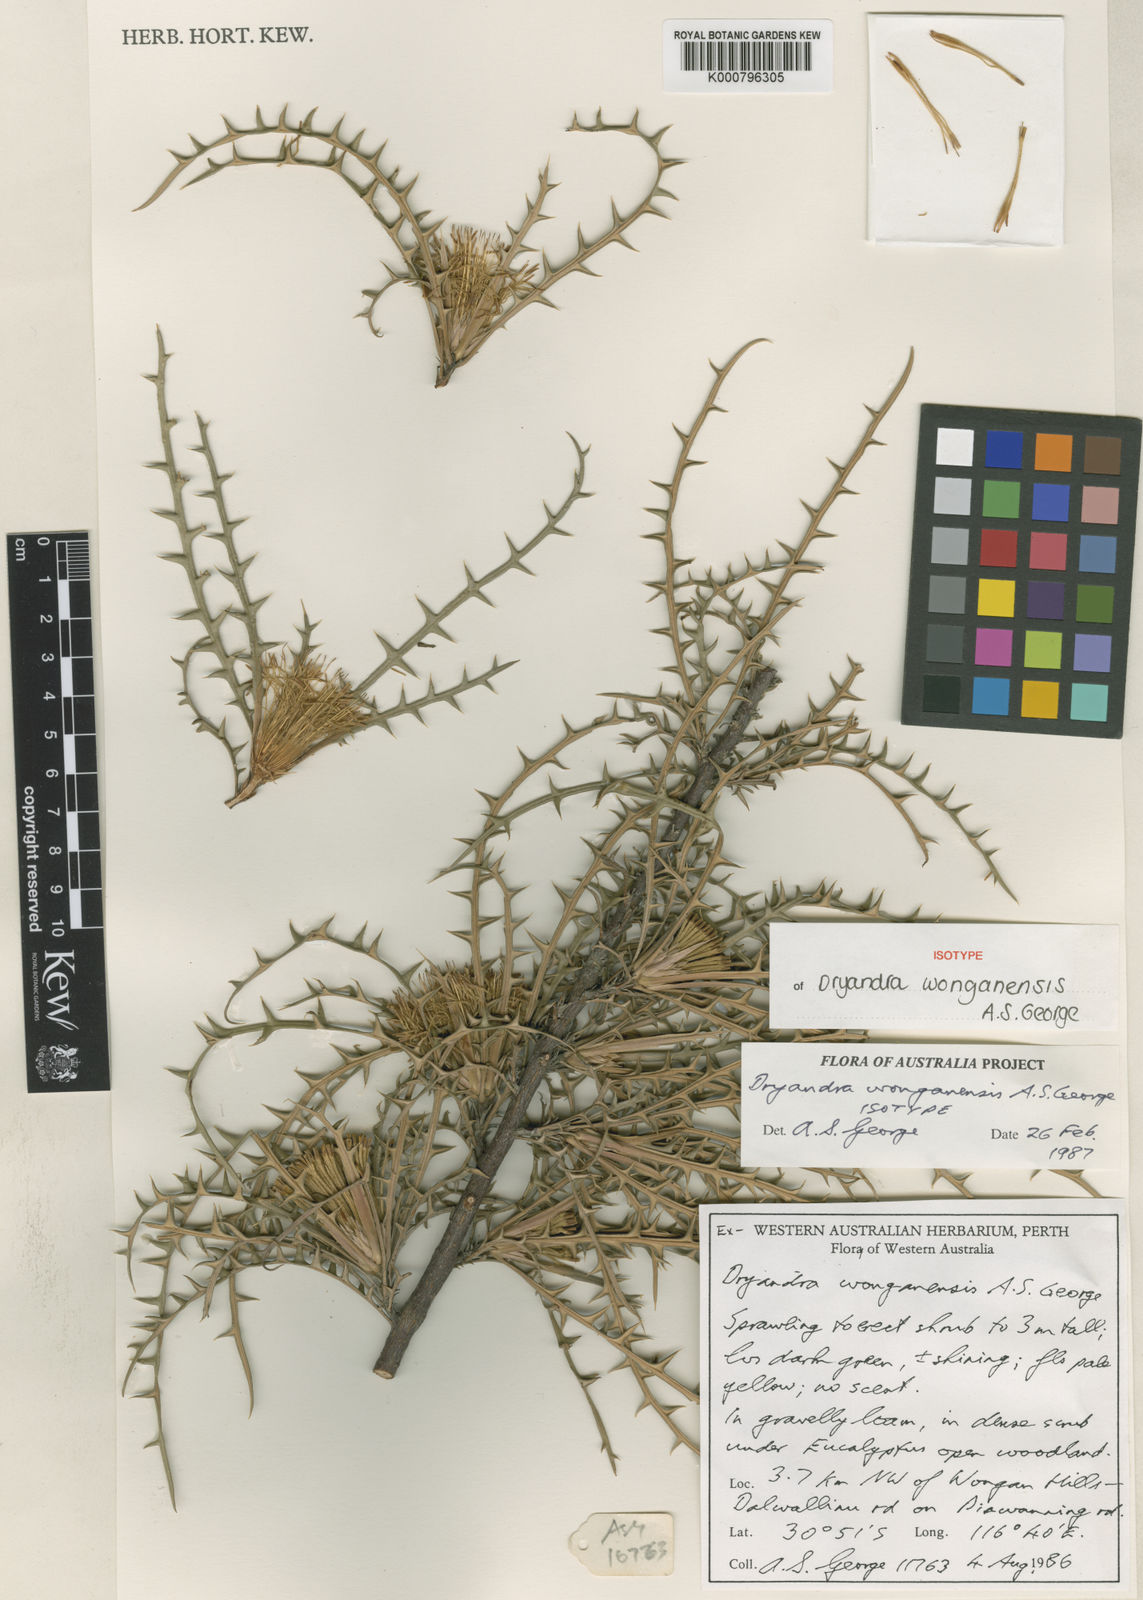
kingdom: Plantae
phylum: Tracheophyta
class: Magnoliopsida
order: Proteales
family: Proteaceae
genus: Banksia
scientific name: Banksia wonganensis
